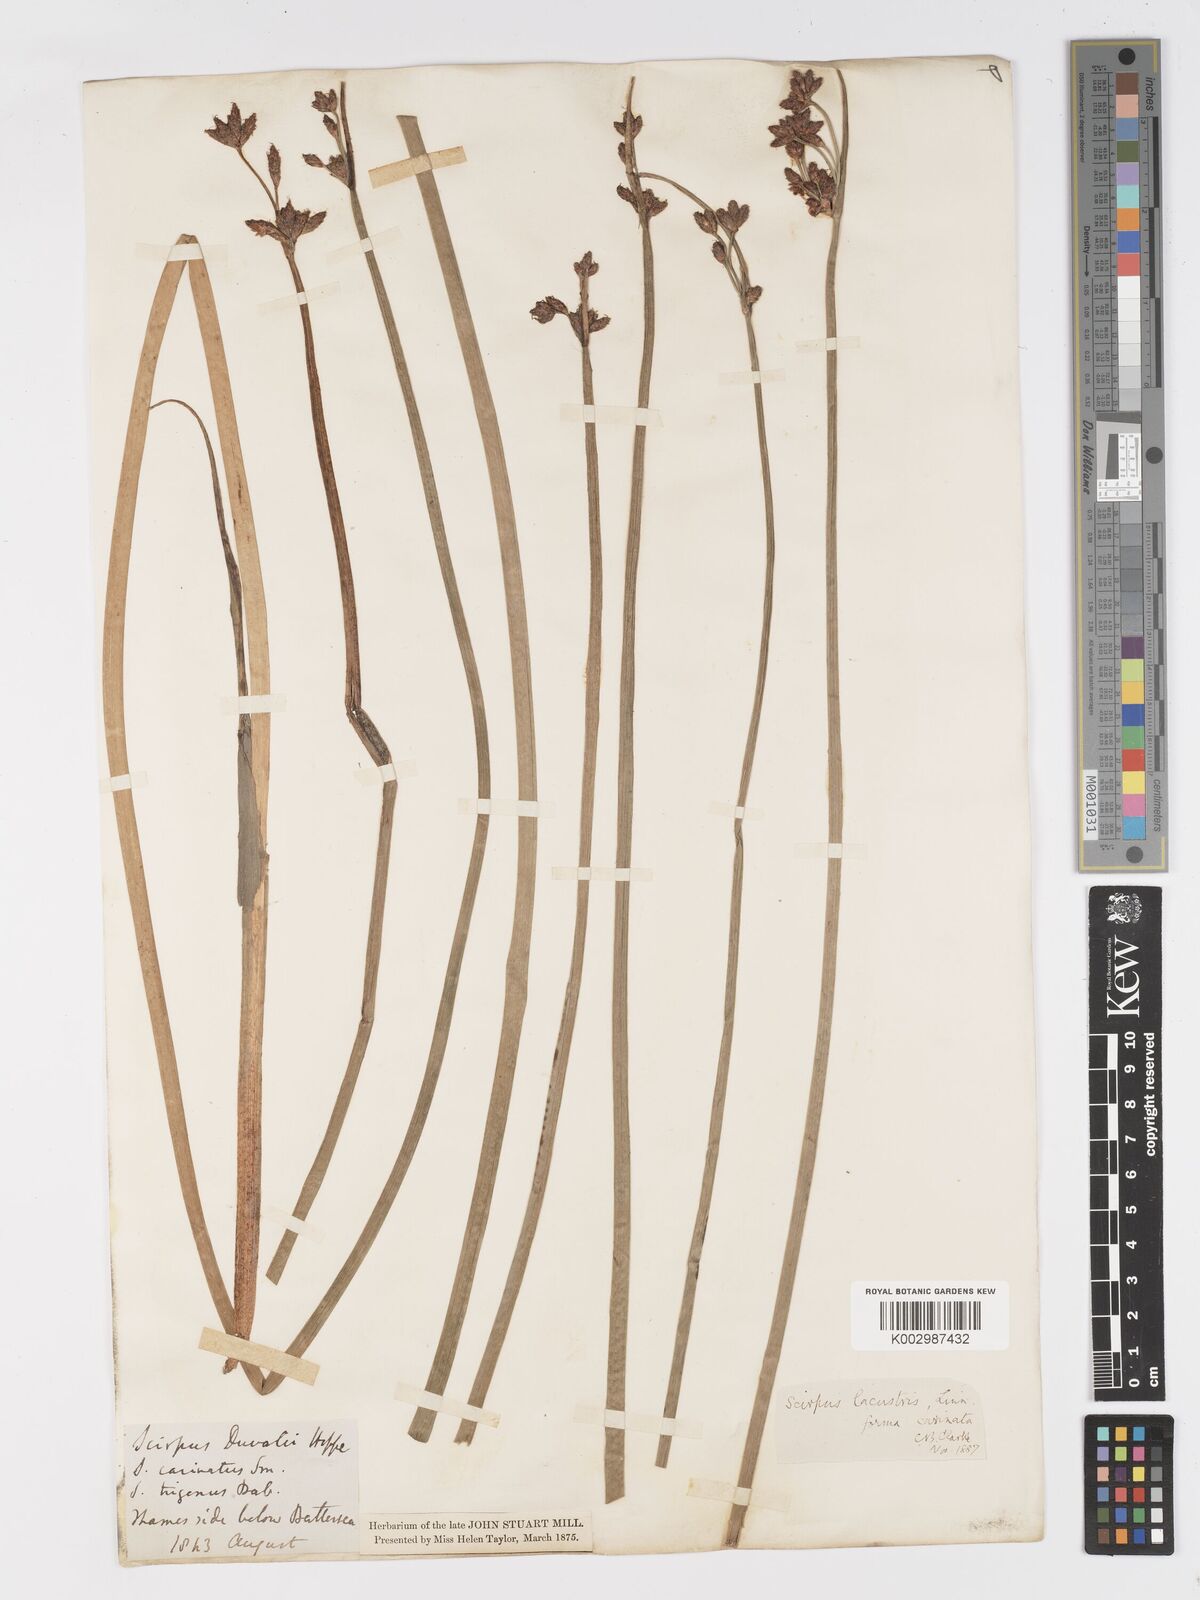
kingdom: Plantae
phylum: Tracheophyta
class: Liliopsida
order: Poales
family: Cyperaceae
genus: Schoenoplectus
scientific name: Schoenoplectus lacustris
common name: Common club-rush
